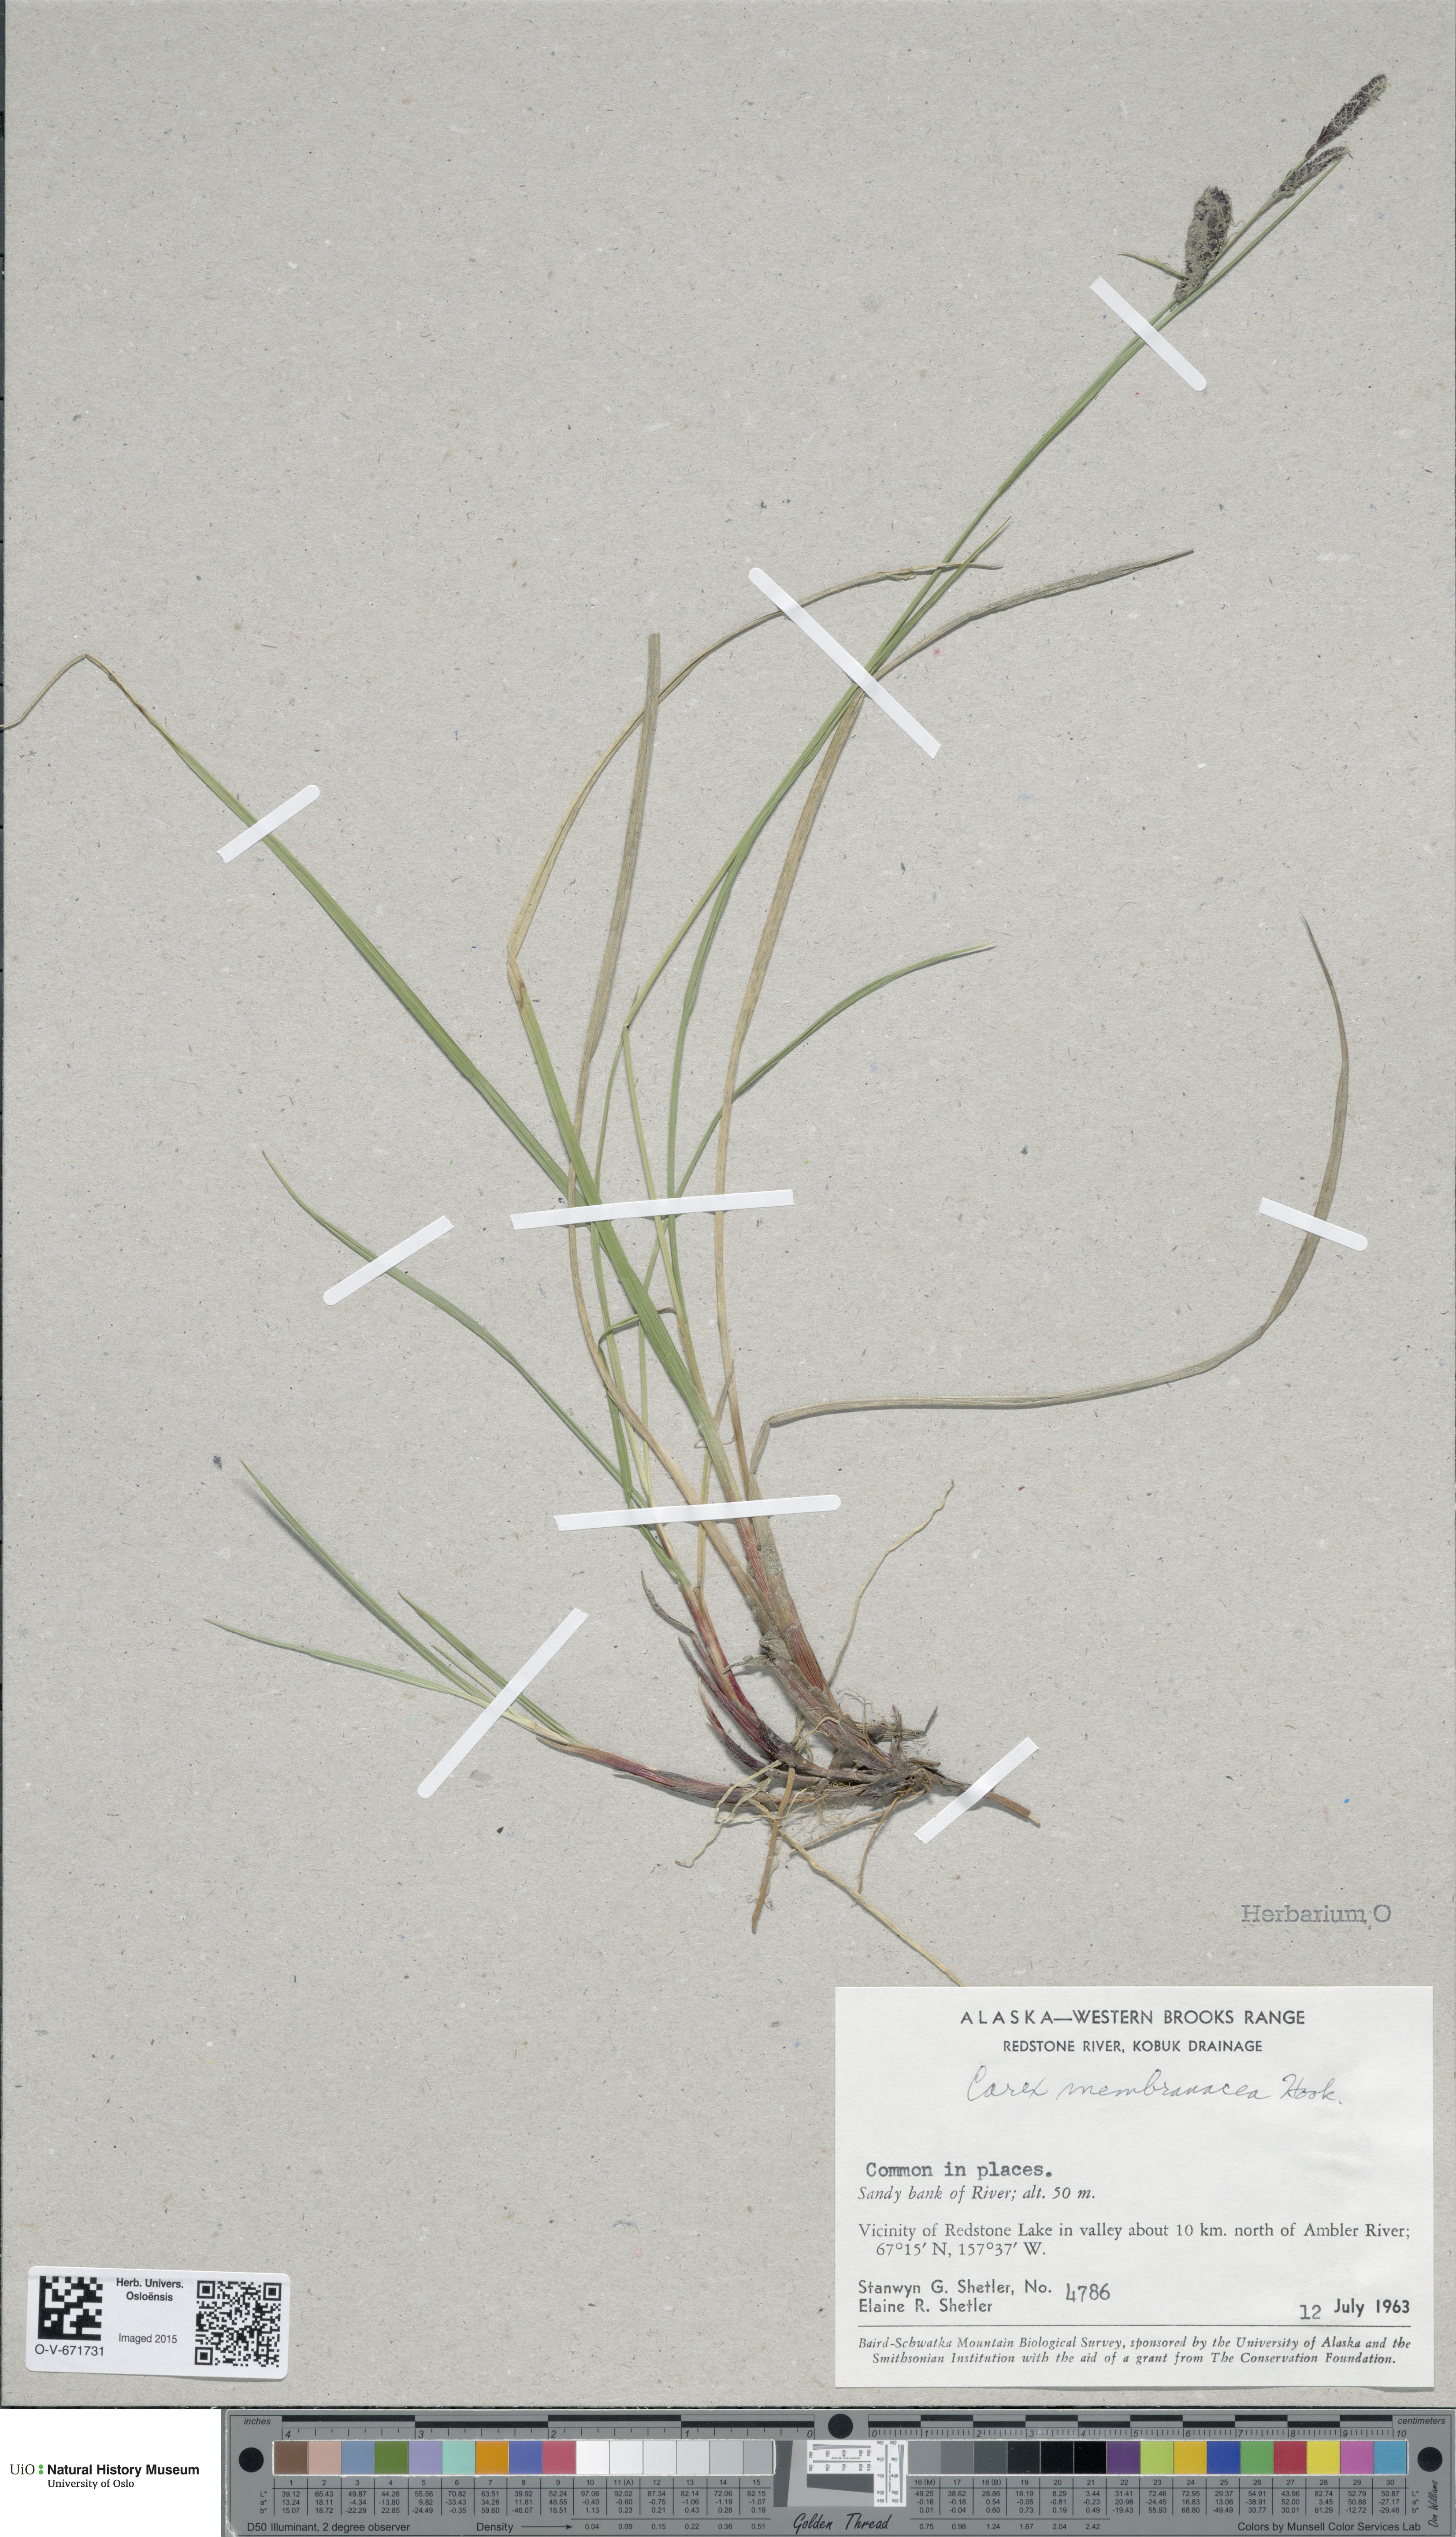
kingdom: Plantae
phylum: Tracheophyta
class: Liliopsida
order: Poales
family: Cyperaceae
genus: Carex
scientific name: Carex membranacea
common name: Fragile sedge
